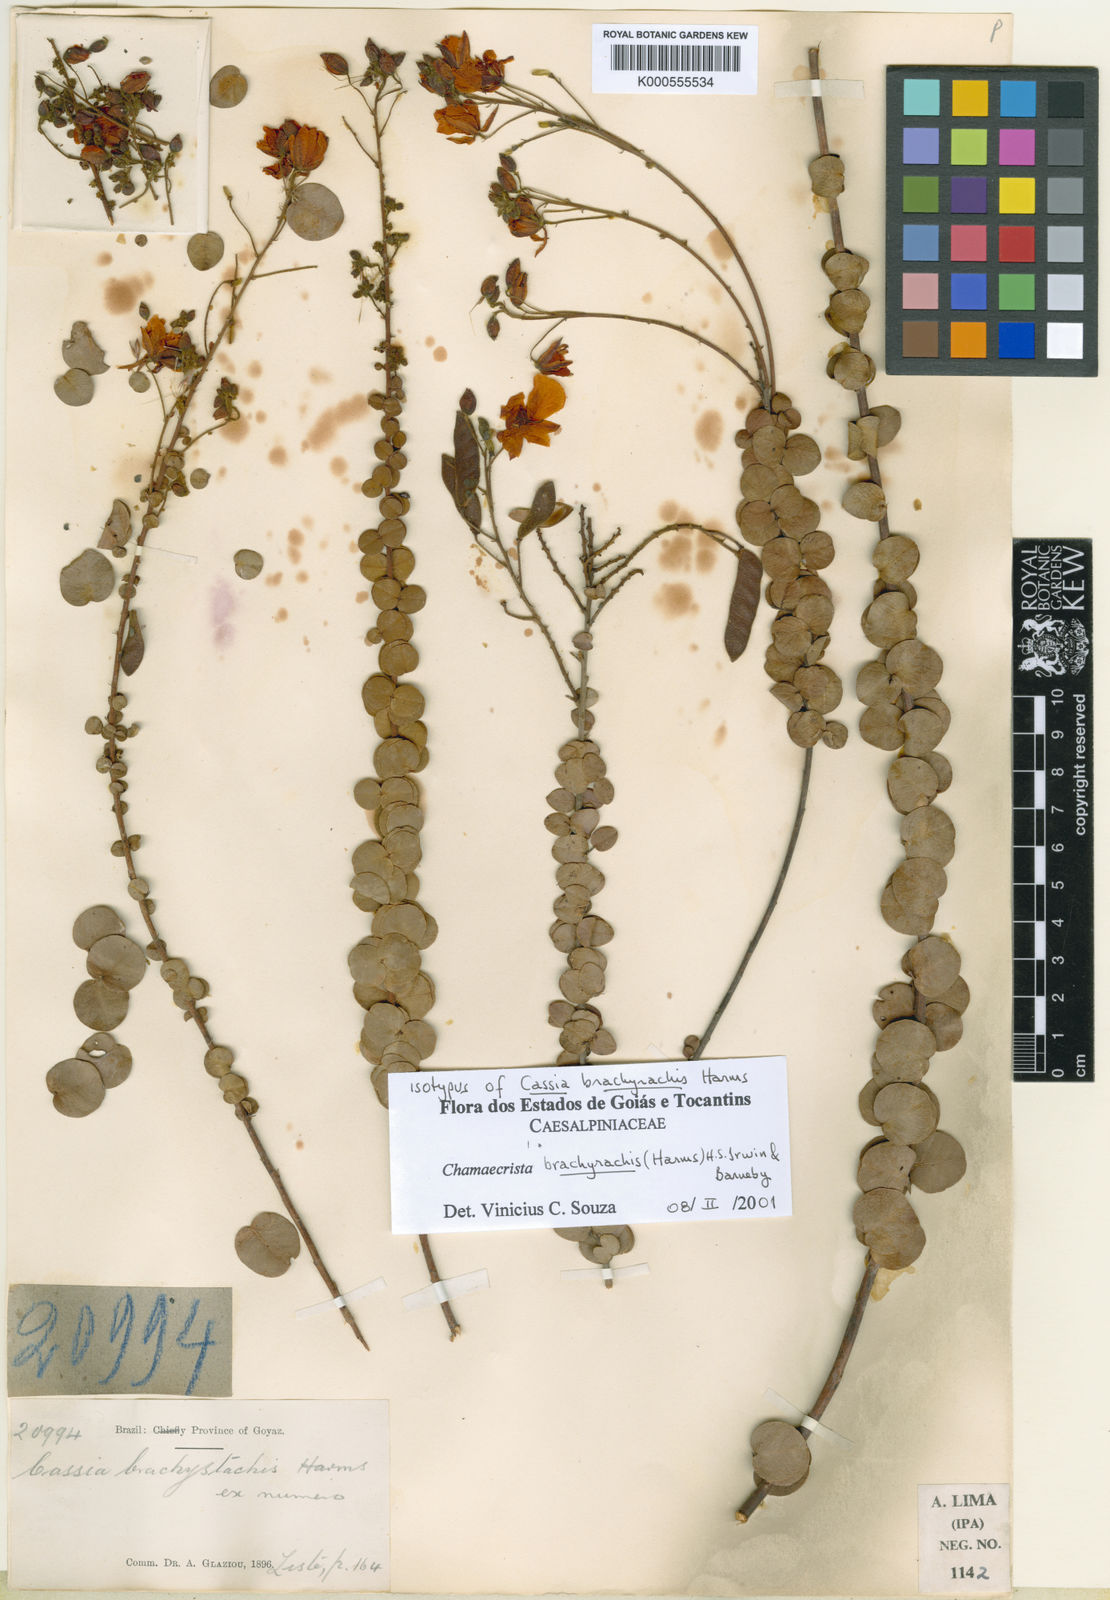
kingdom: Plantae
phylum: Tracheophyta
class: Magnoliopsida
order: Fabales
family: Fabaceae
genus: Chamaecrista
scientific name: Chamaecrista brachyrachis
